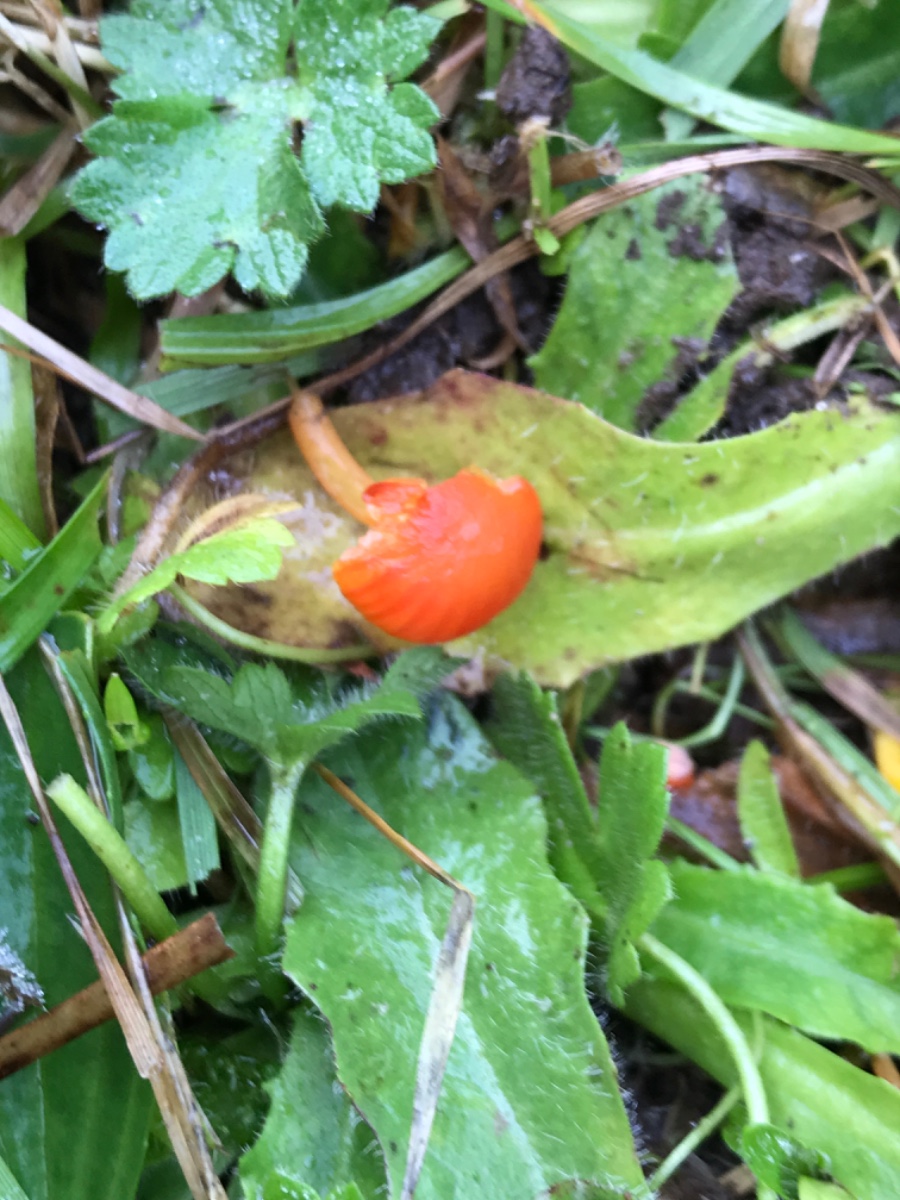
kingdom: Fungi
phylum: Basidiomycota
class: Agaricomycetes
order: Agaricales
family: Hygrophoraceae
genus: Hygrocybe
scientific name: Hygrocybe mucronella
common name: bitter vokshat
